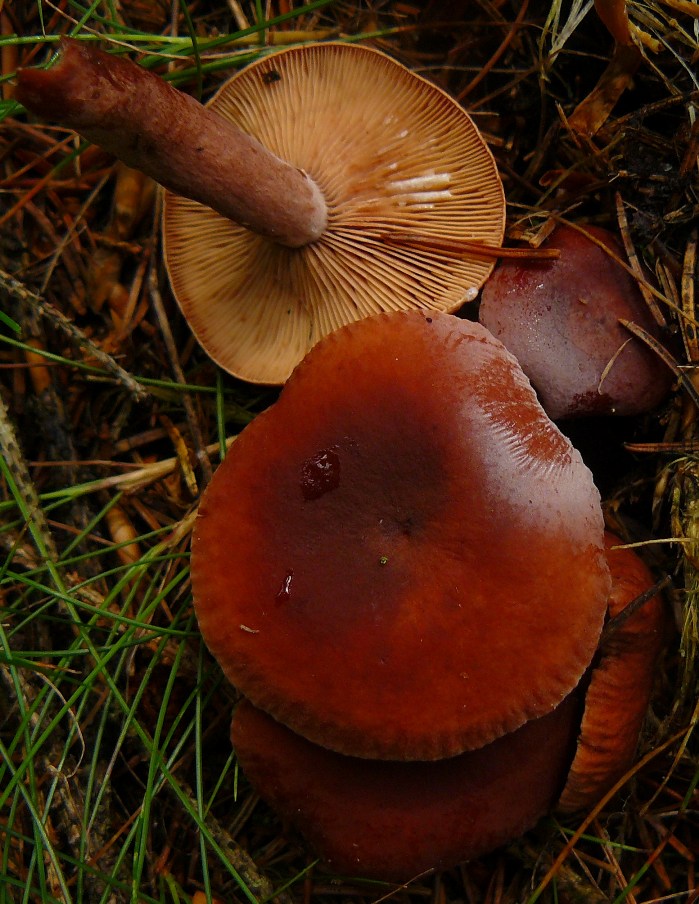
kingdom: Fungi
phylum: Basidiomycota
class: Agaricomycetes
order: Russulales
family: Russulaceae
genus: Lactarius
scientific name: Lactarius camphoratus
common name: kamfer-mælkehat
